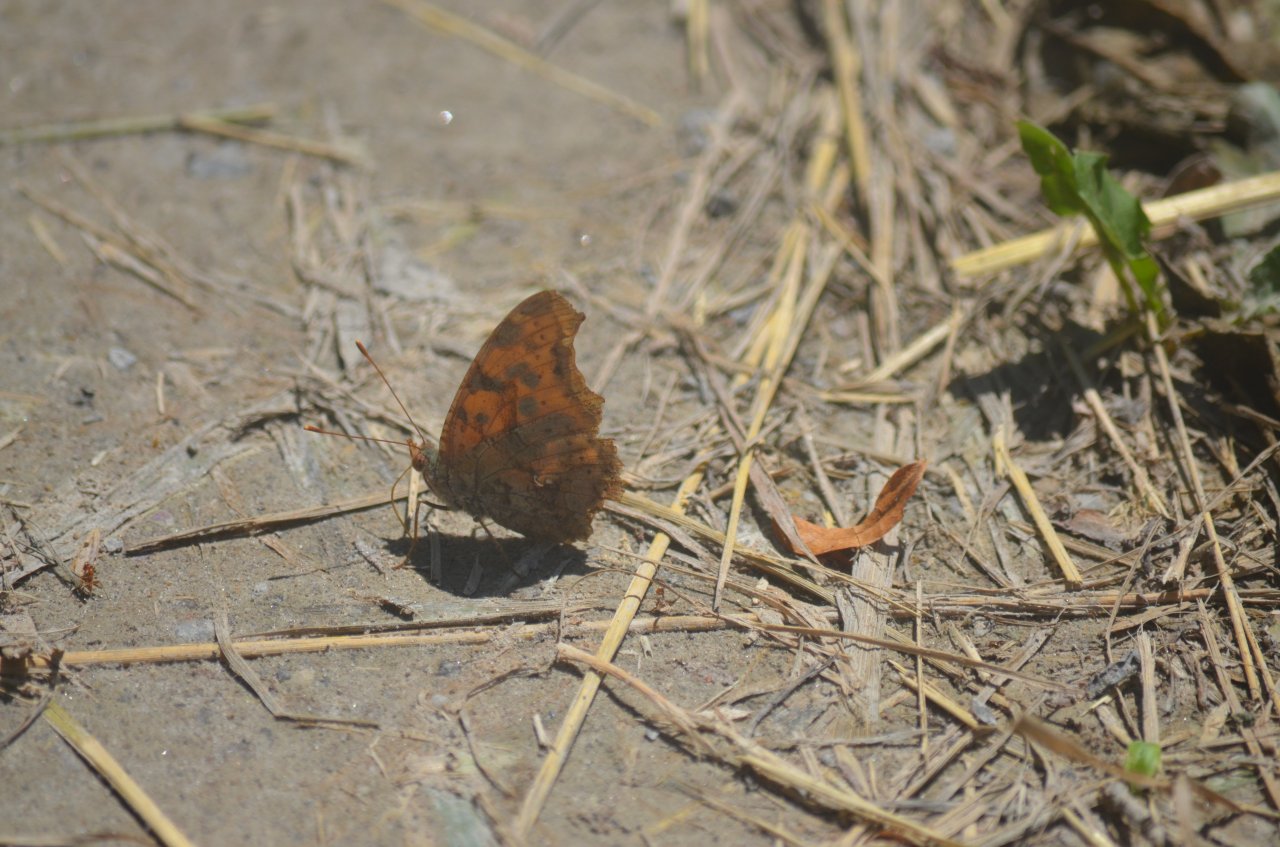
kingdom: Animalia
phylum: Arthropoda
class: Insecta
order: Lepidoptera
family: Nymphalidae
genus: Polygonia
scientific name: Polygonia interrogationis
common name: Question Mark
